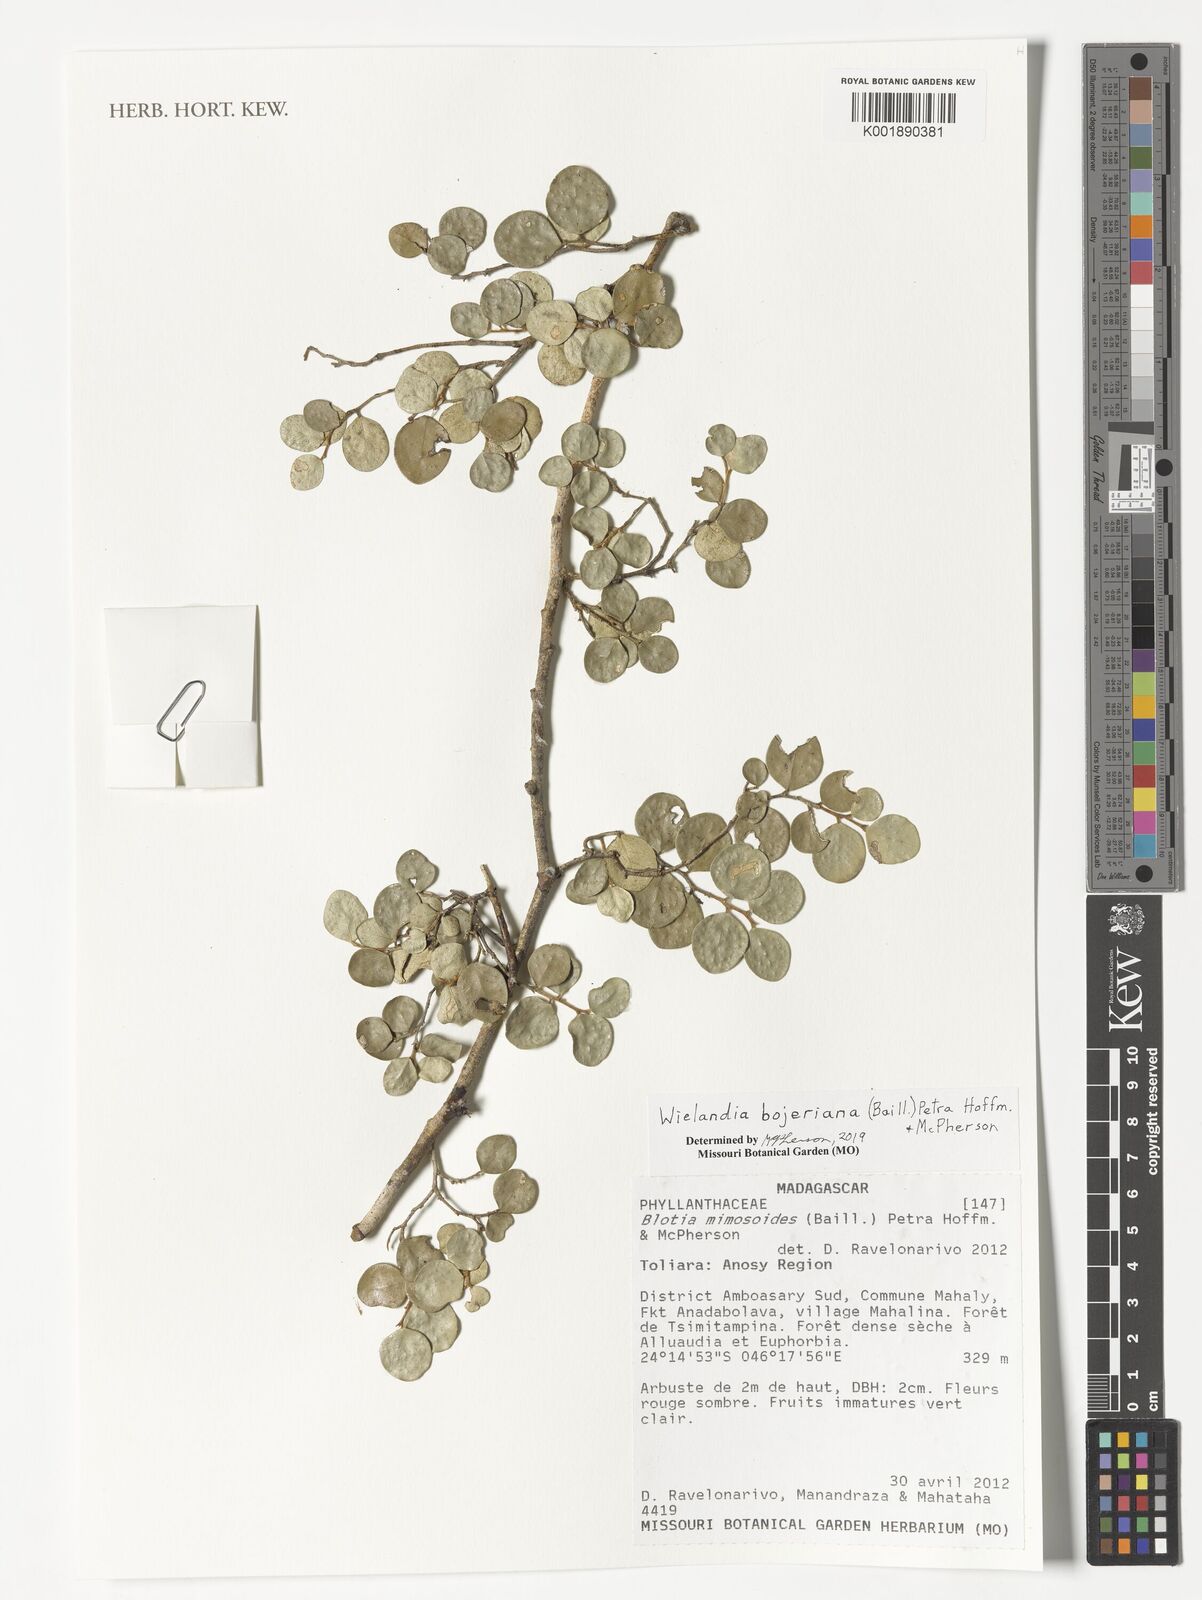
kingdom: Plantae
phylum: Tracheophyta
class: Magnoliopsida
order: Malpighiales
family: Phyllanthaceae
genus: Wielandia
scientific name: Wielandia bojeriana
